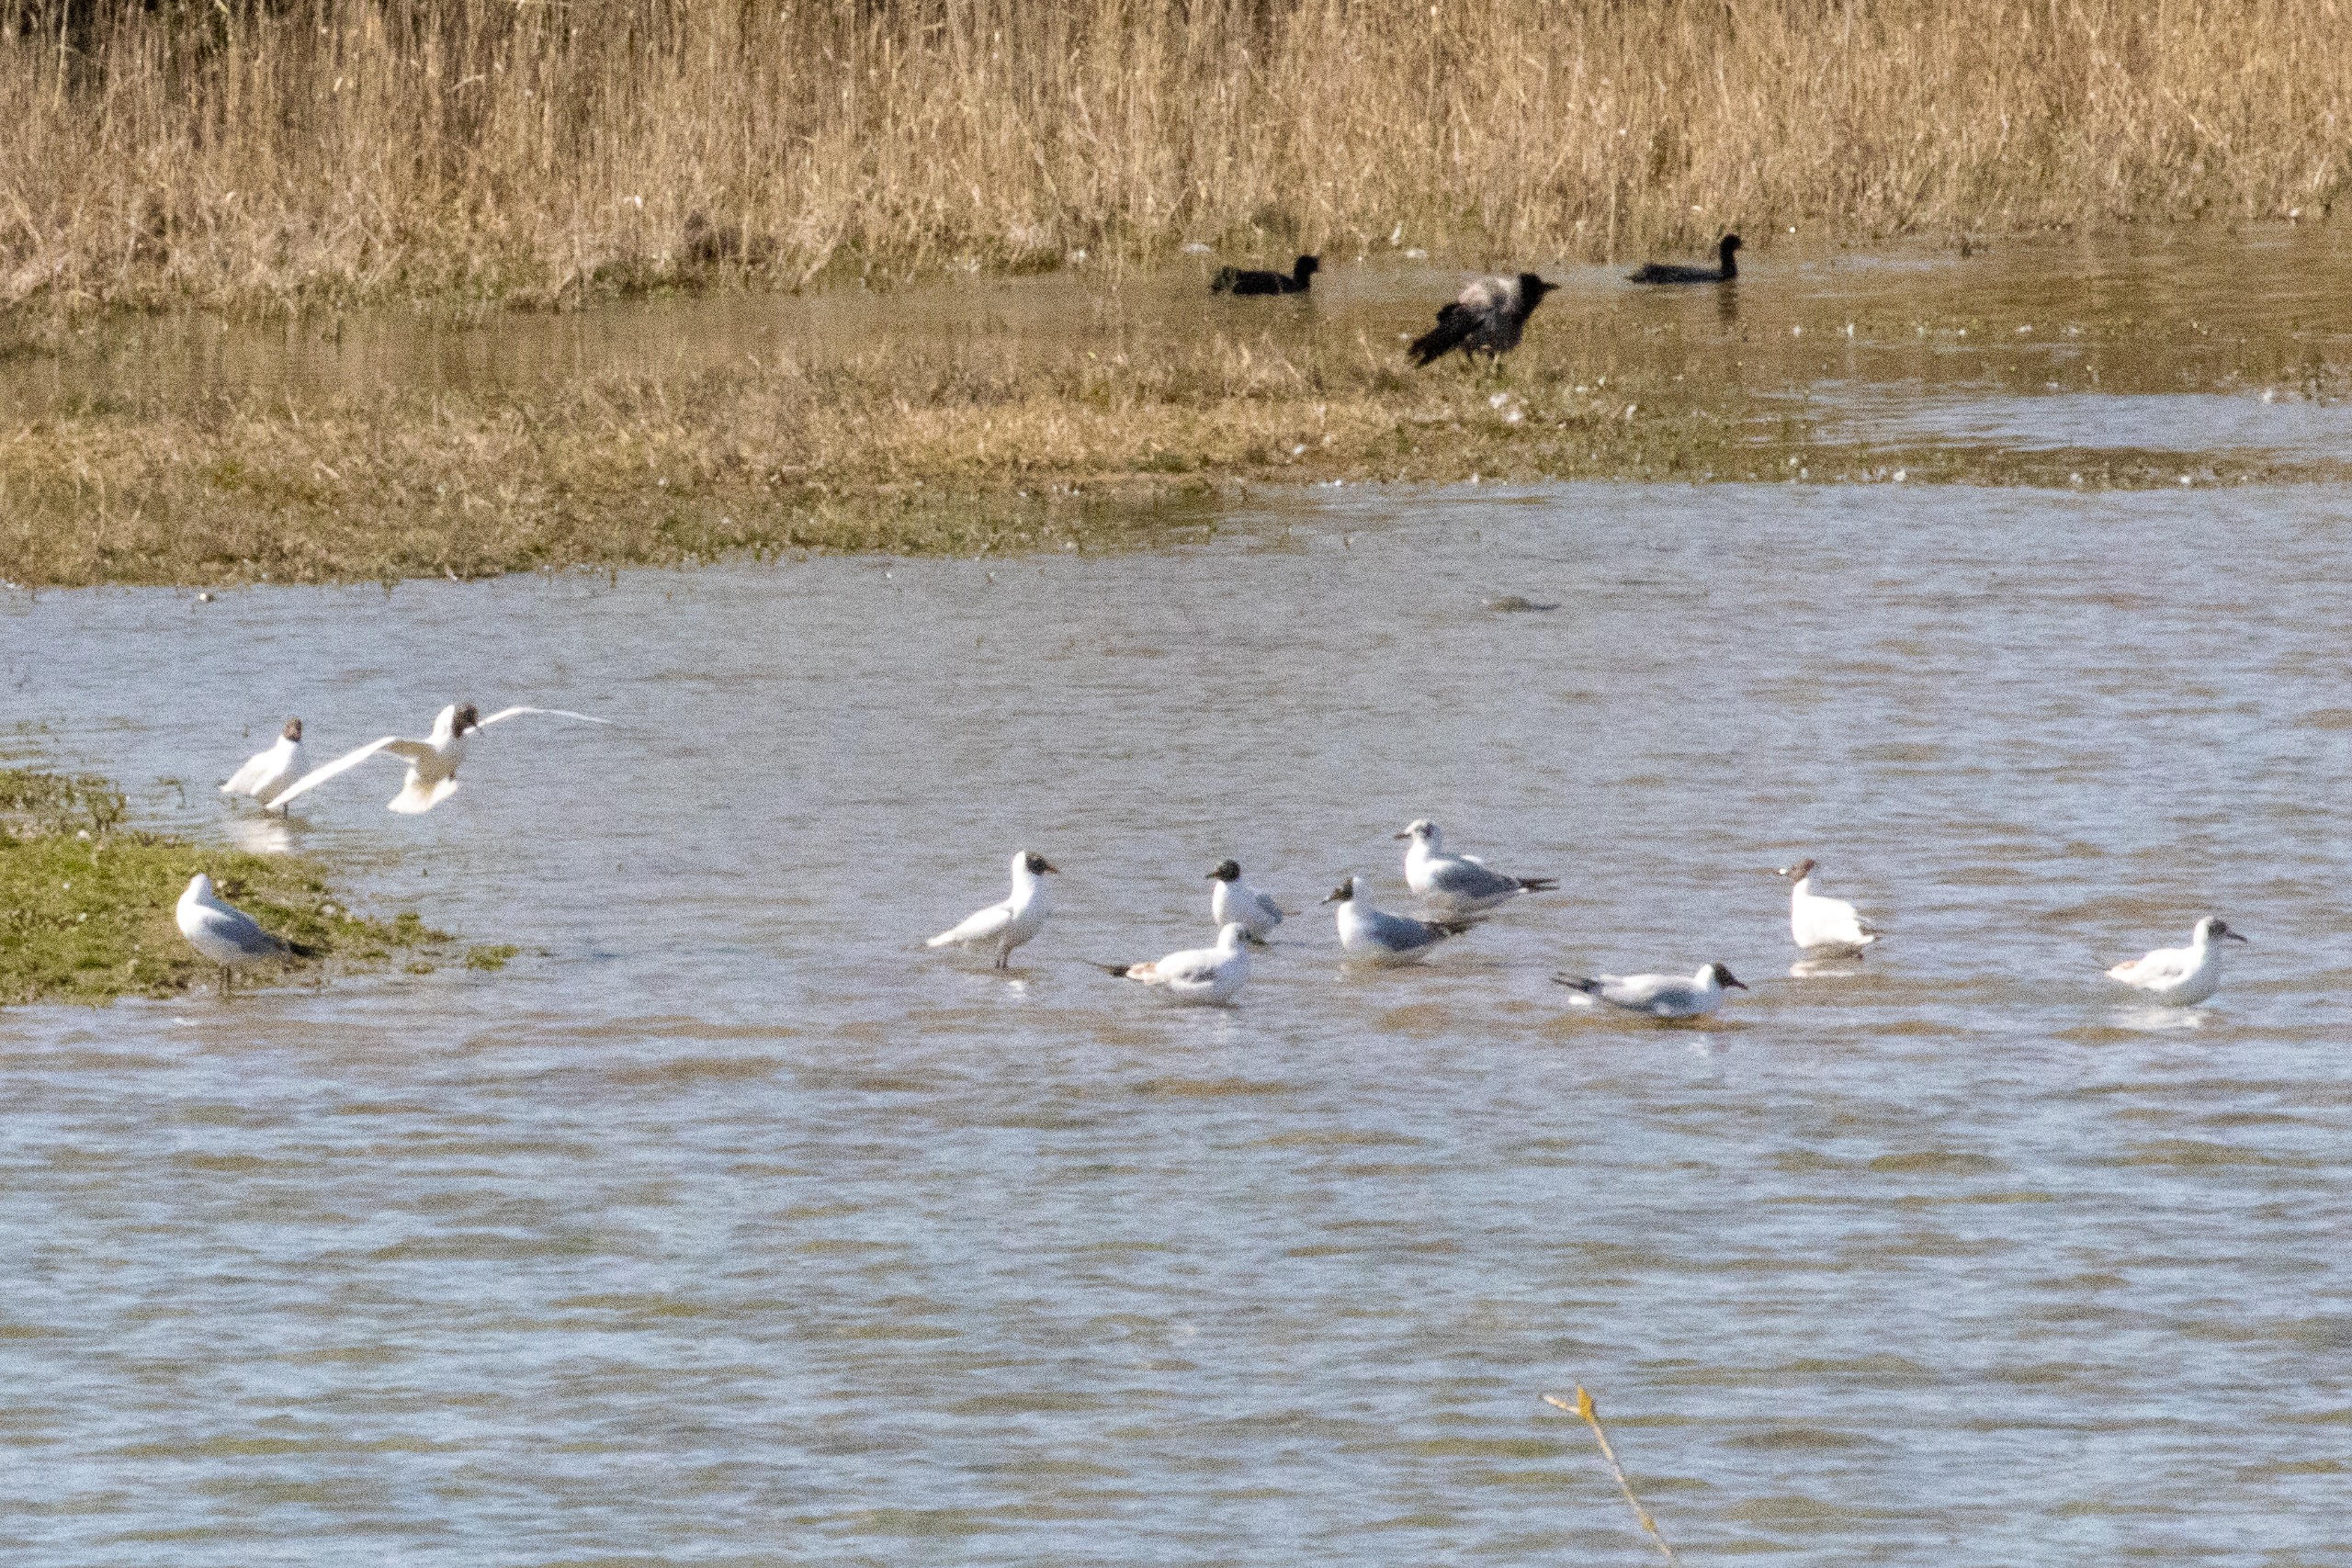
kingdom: Animalia
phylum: Chordata
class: Aves
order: Charadriiformes
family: Laridae
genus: Chroicocephalus
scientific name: Chroicocephalus ridibundus
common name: Hættemåge
